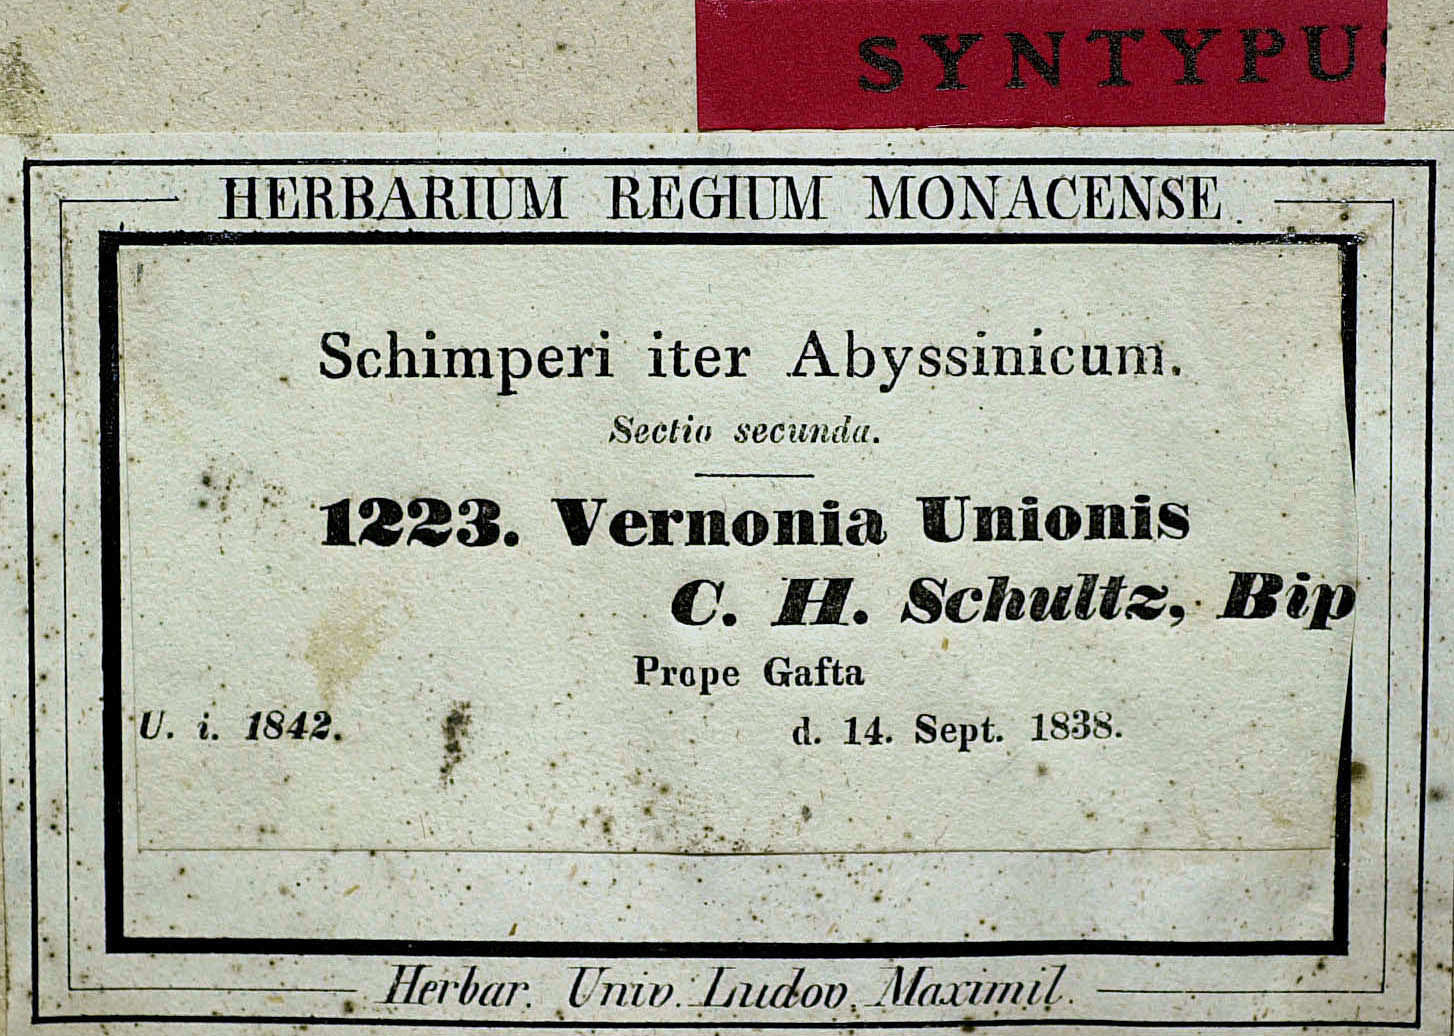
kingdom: Plantae
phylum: Tracheophyta
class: Magnoliopsida
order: Asterales
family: Asteraceae
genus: Orbivestus
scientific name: Orbivestus unionis
